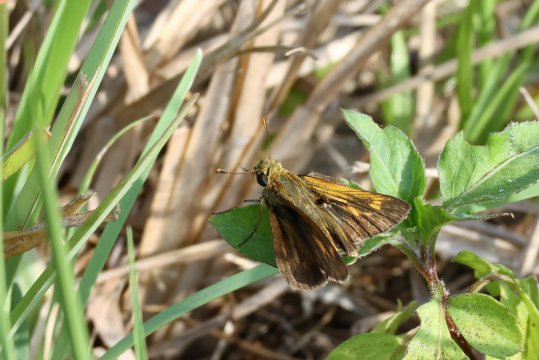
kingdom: Animalia
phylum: Arthropoda
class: Insecta
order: Lepidoptera
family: Hesperiidae
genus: Wallengrenia
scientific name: Wallengrenia otho
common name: Southern Broken-Dash
